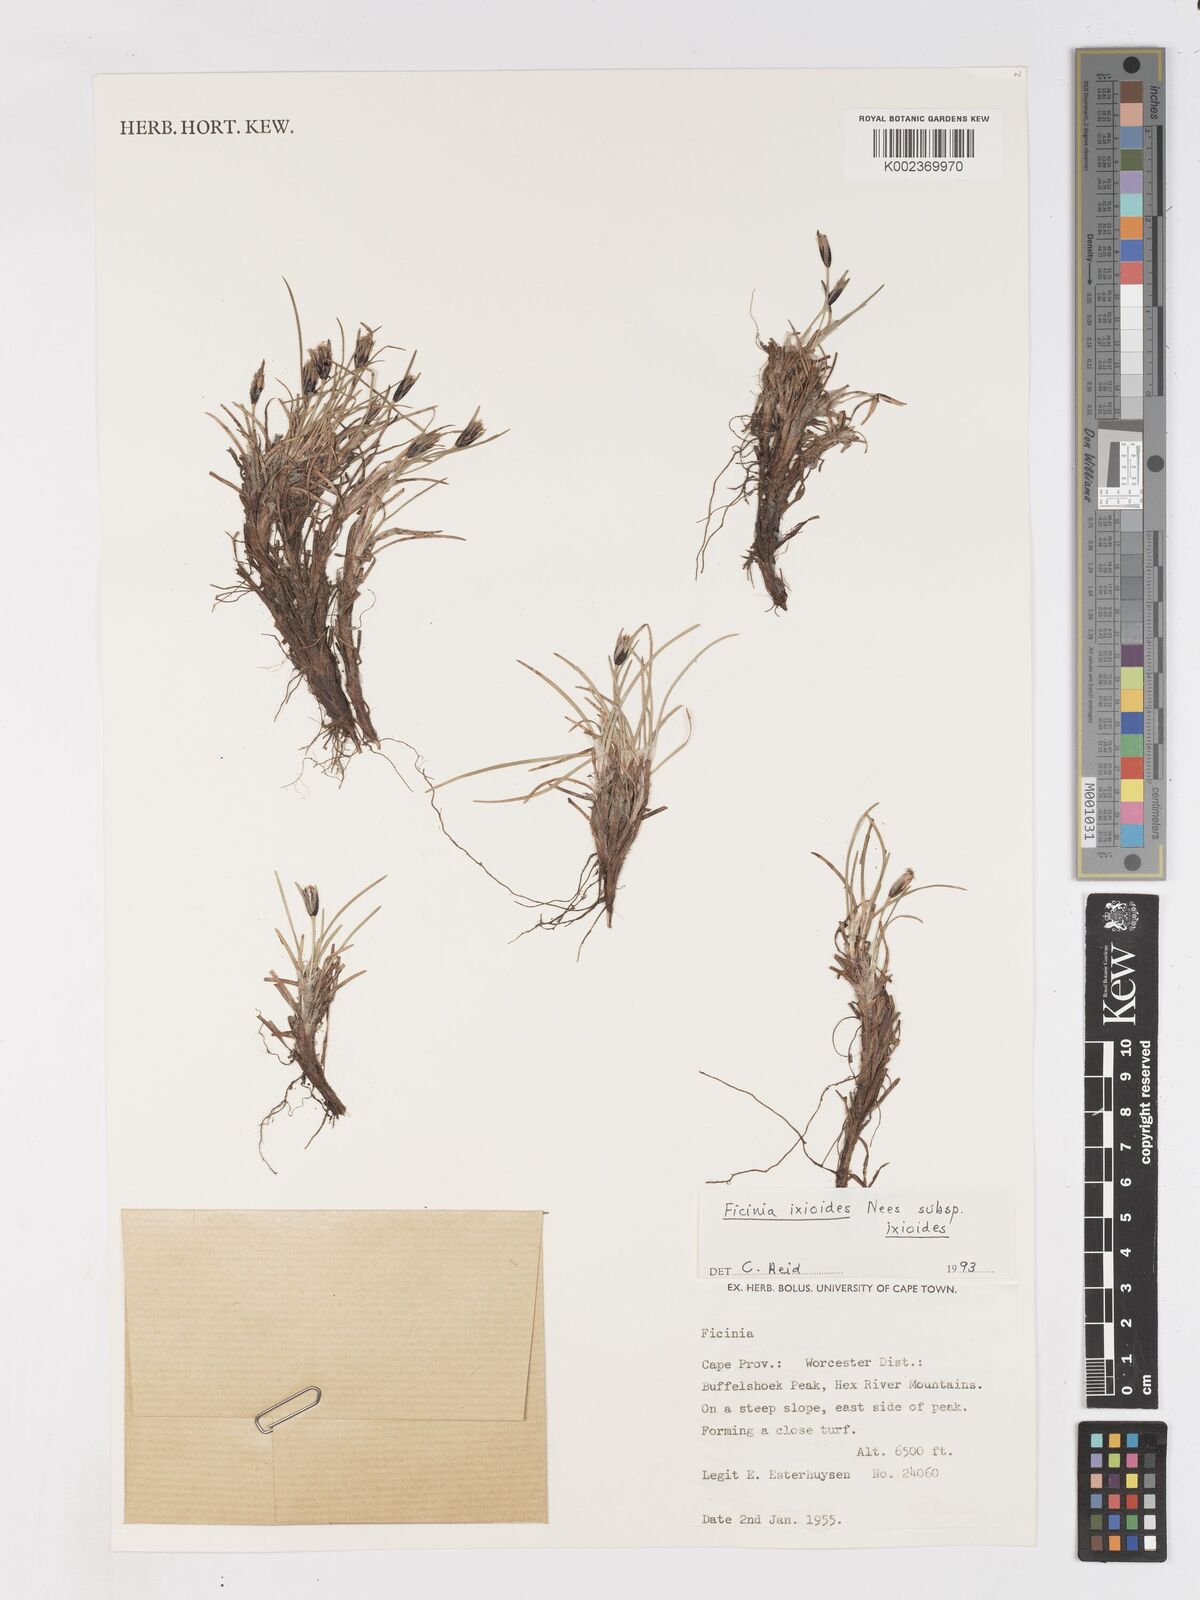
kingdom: Plantae
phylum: Tracheophyta
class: Liliopsida
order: Poales
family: Cyperaceae
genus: Ficinia
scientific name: Ficinia ixioides
